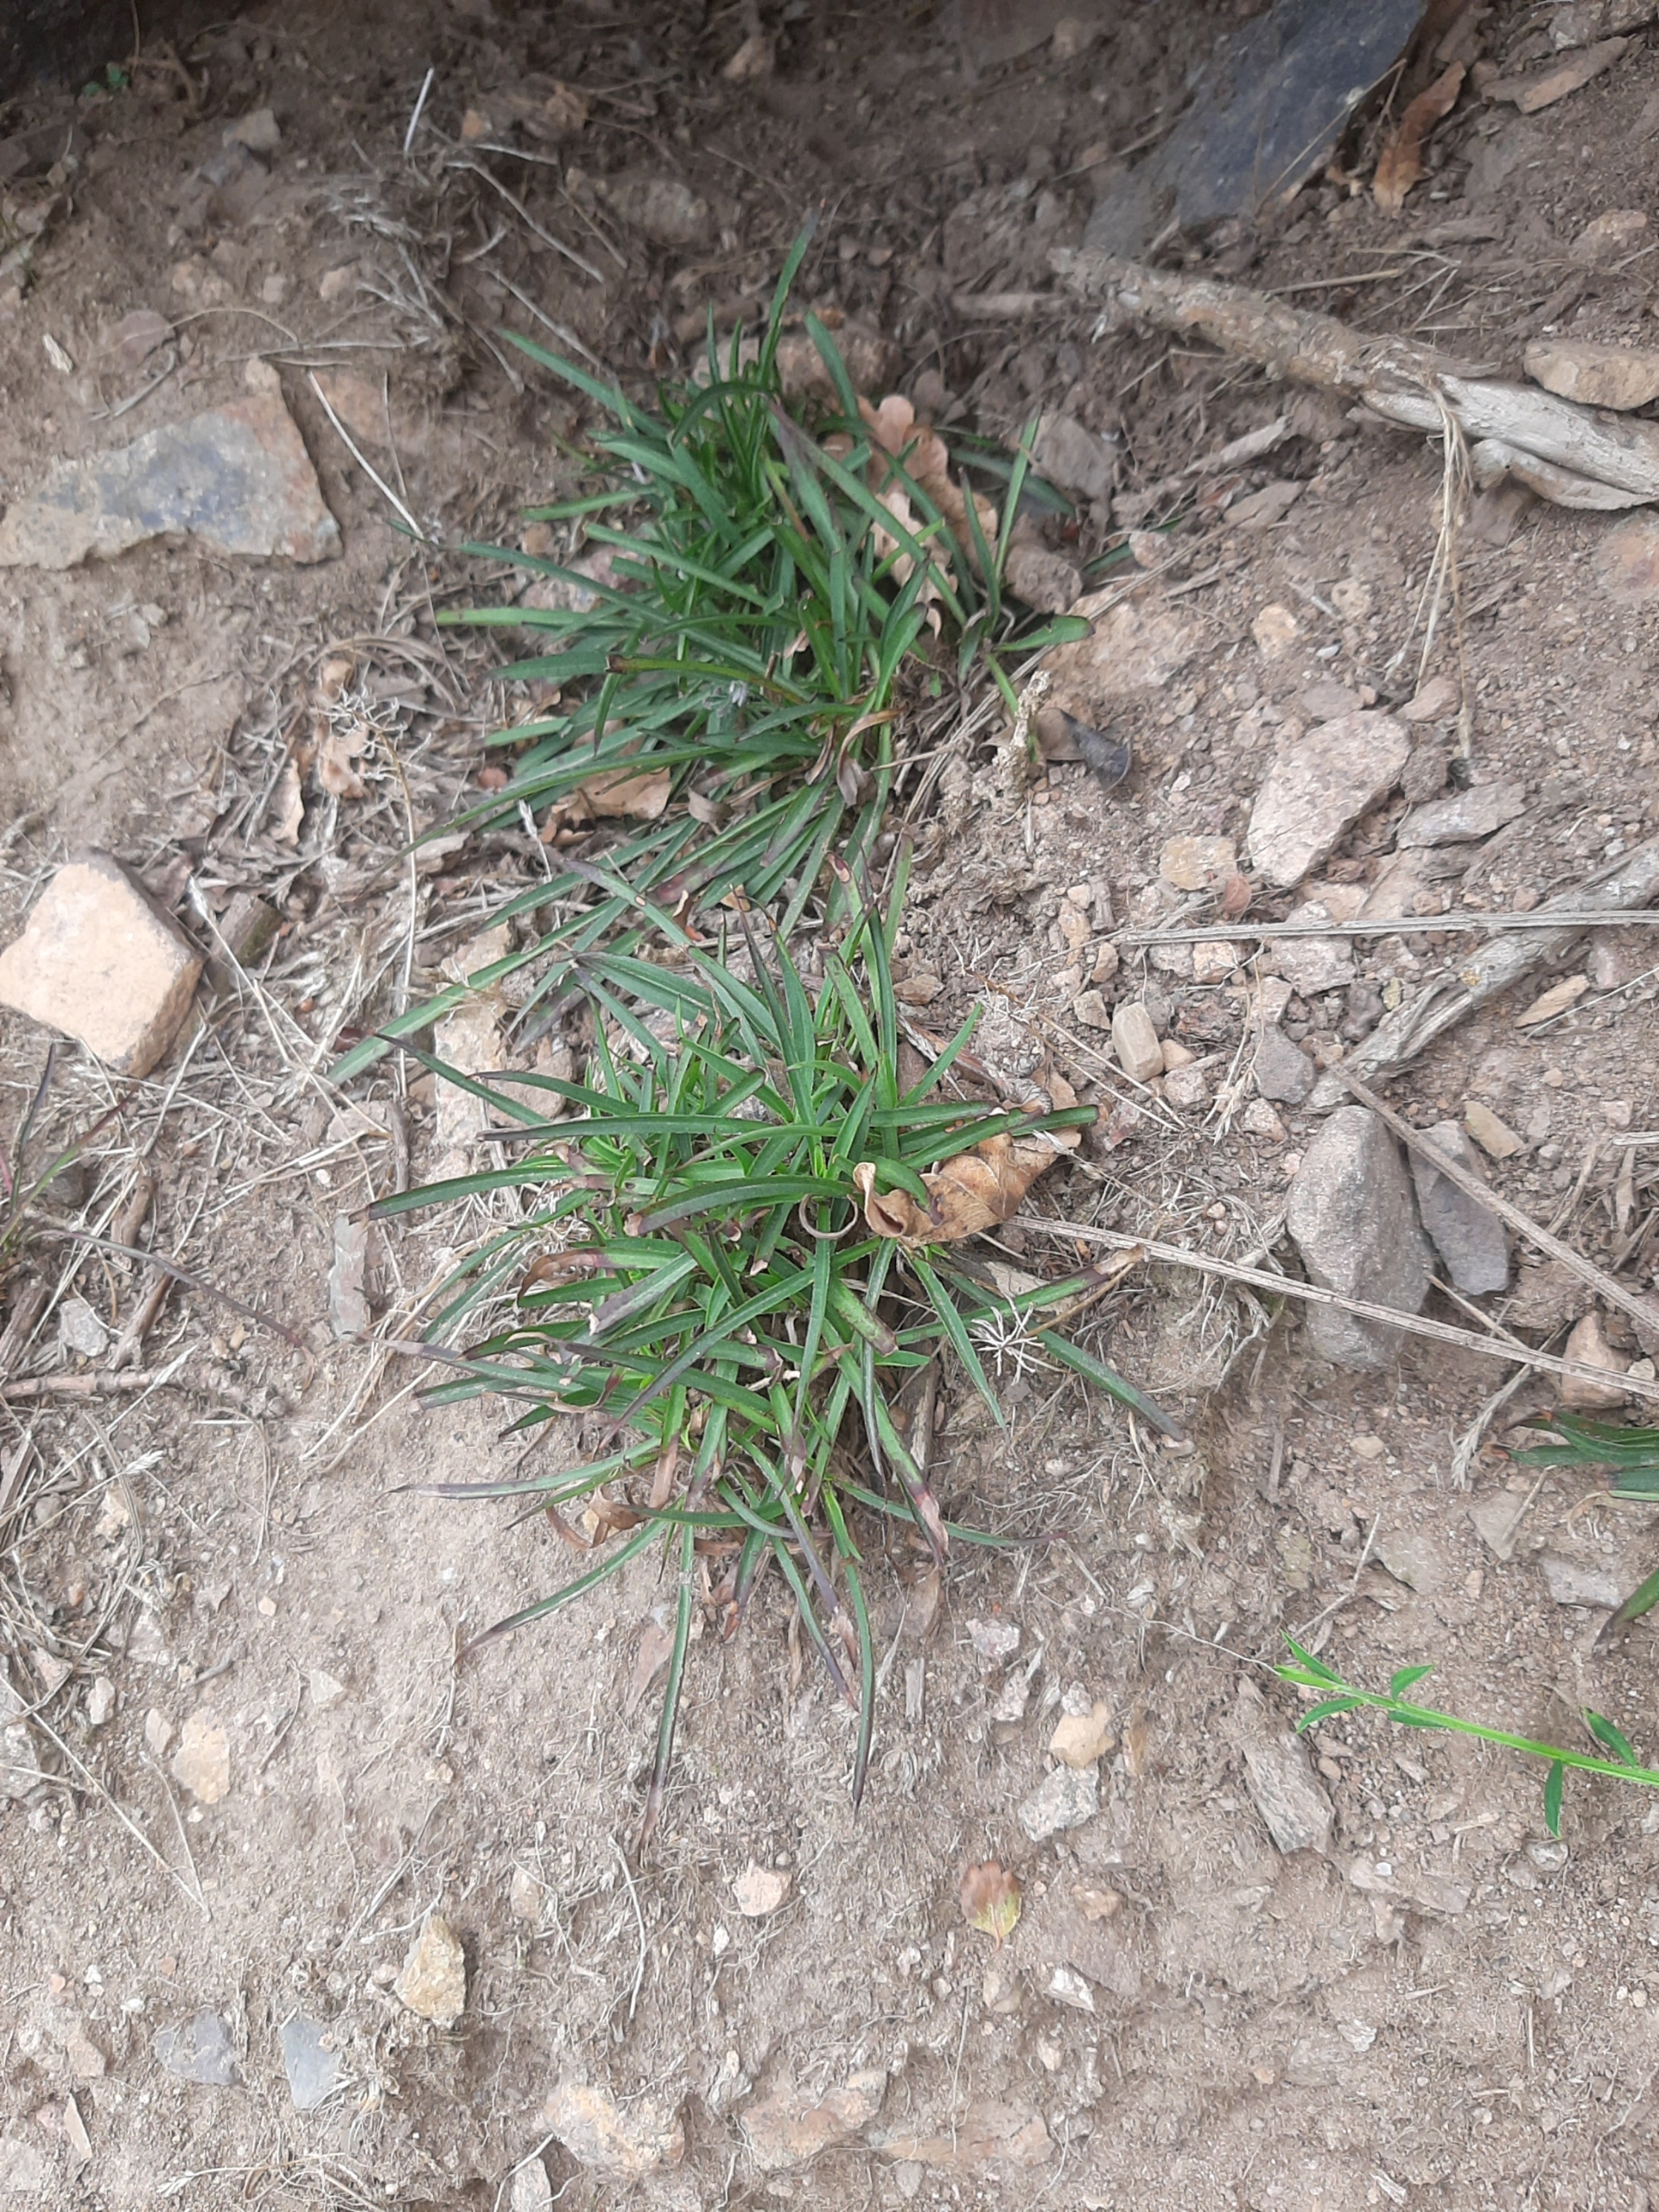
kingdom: Plantae
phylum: Tracheophyta
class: Magnoliopsida
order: Caryophyllales
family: Caryophyllaceae
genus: Viscaria
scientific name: Viscaria vulgaris
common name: Tjærenellike
